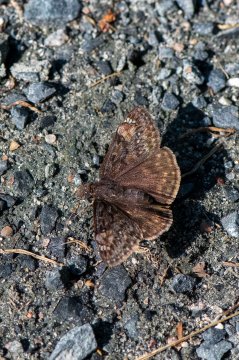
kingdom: Animalia
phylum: Arthropoda
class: Insecta
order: Lepidoptera
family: Hesperiidae
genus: Gesta
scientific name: Gesta
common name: Juvenal's Duskywing
